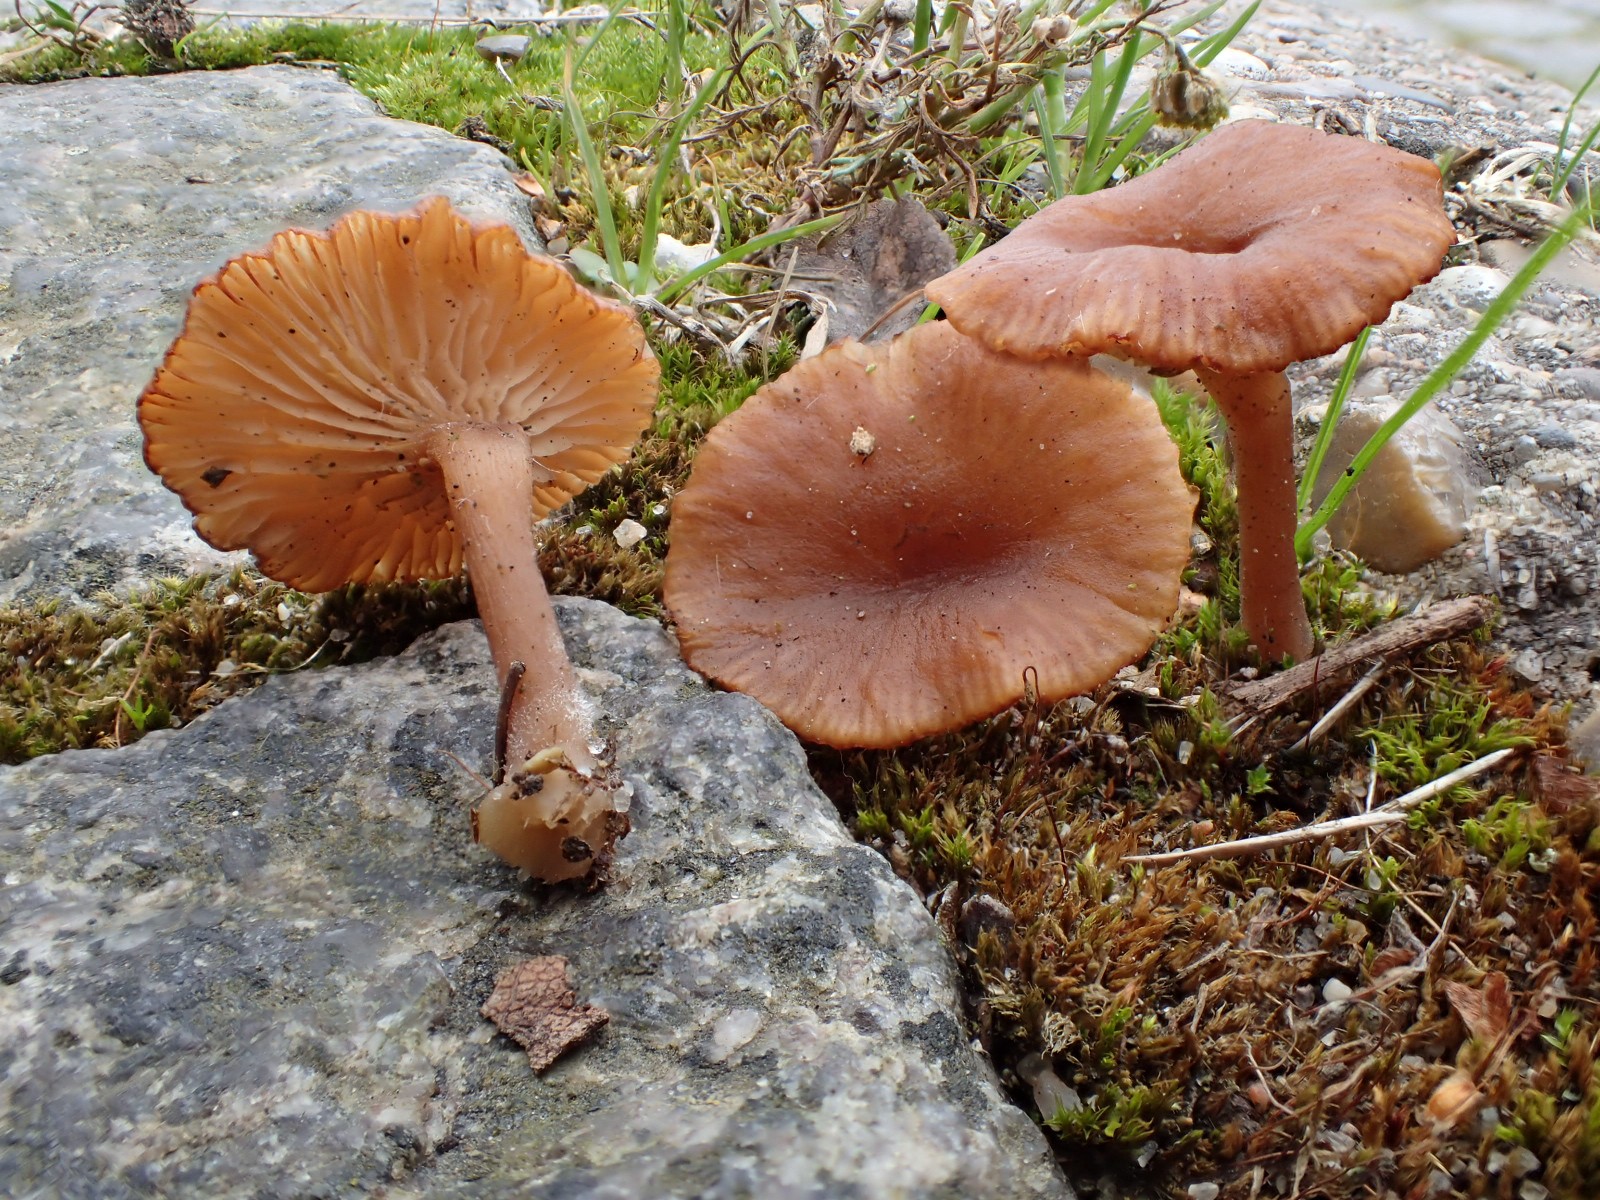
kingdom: Fungi
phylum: Basidiomycota
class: Agaricomycetes
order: Agaricales
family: Tricholomataceae
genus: Omphalina
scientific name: Omphalina pyxidata
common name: rødbrun navlehat
